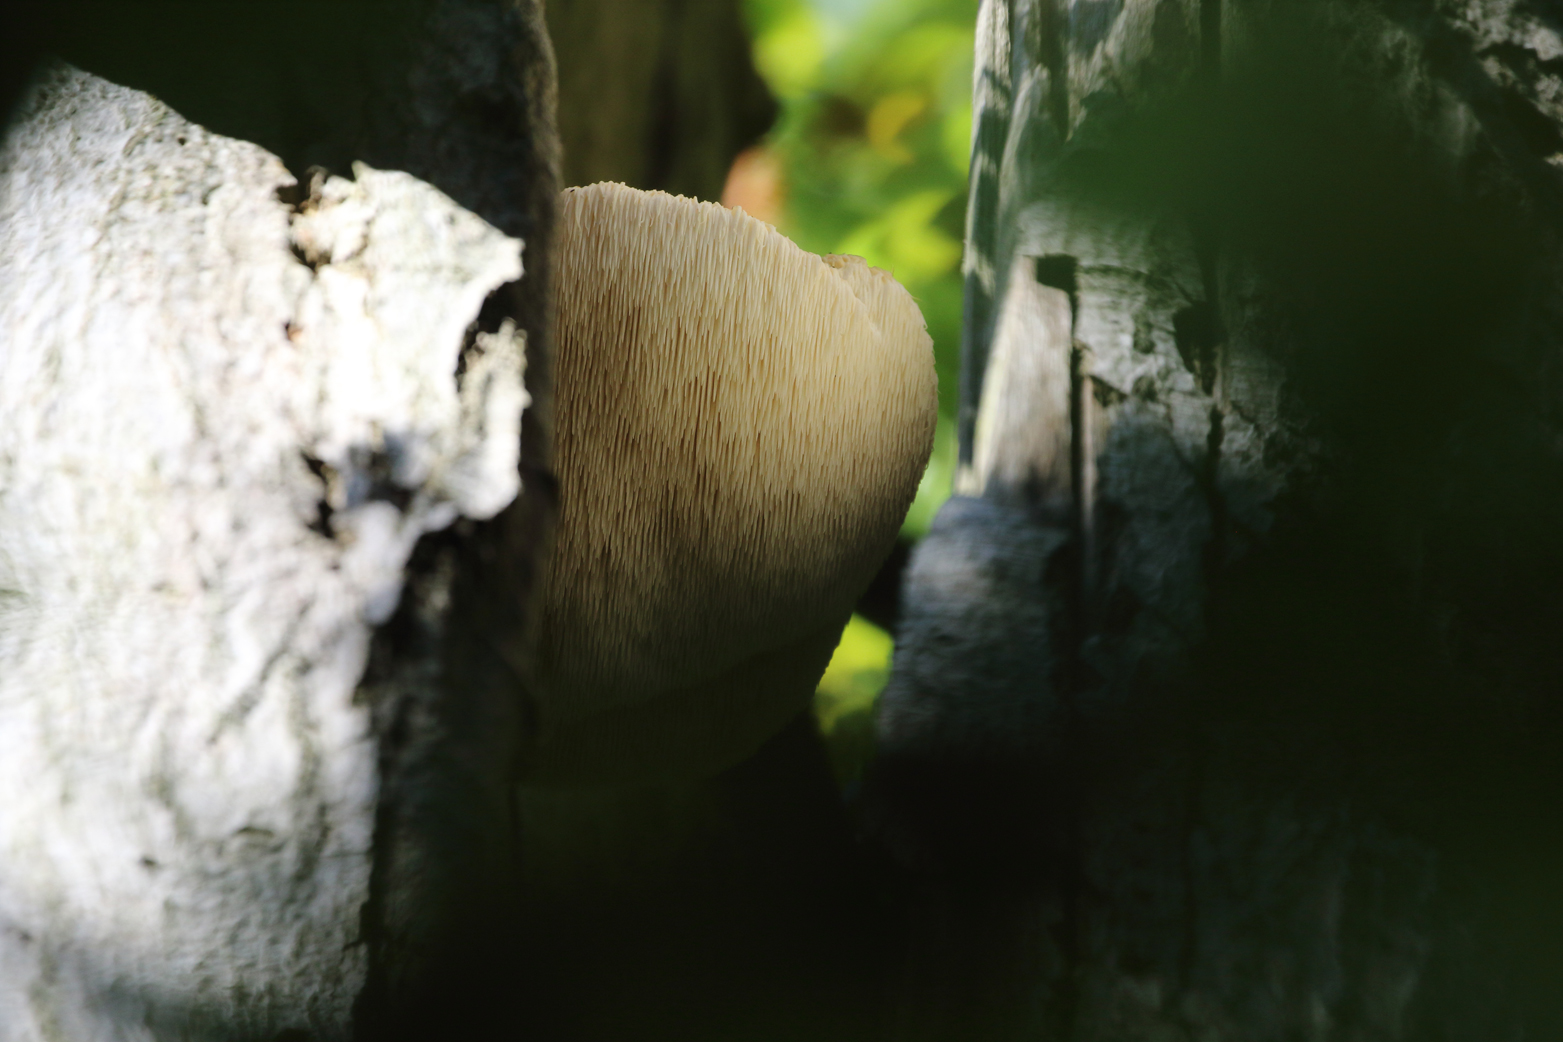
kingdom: Fungi
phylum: Basidiomycota
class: Agaricomycetes
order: Russulales
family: Hericiaceae
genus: Hericium
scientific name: Hericium erinaceus
